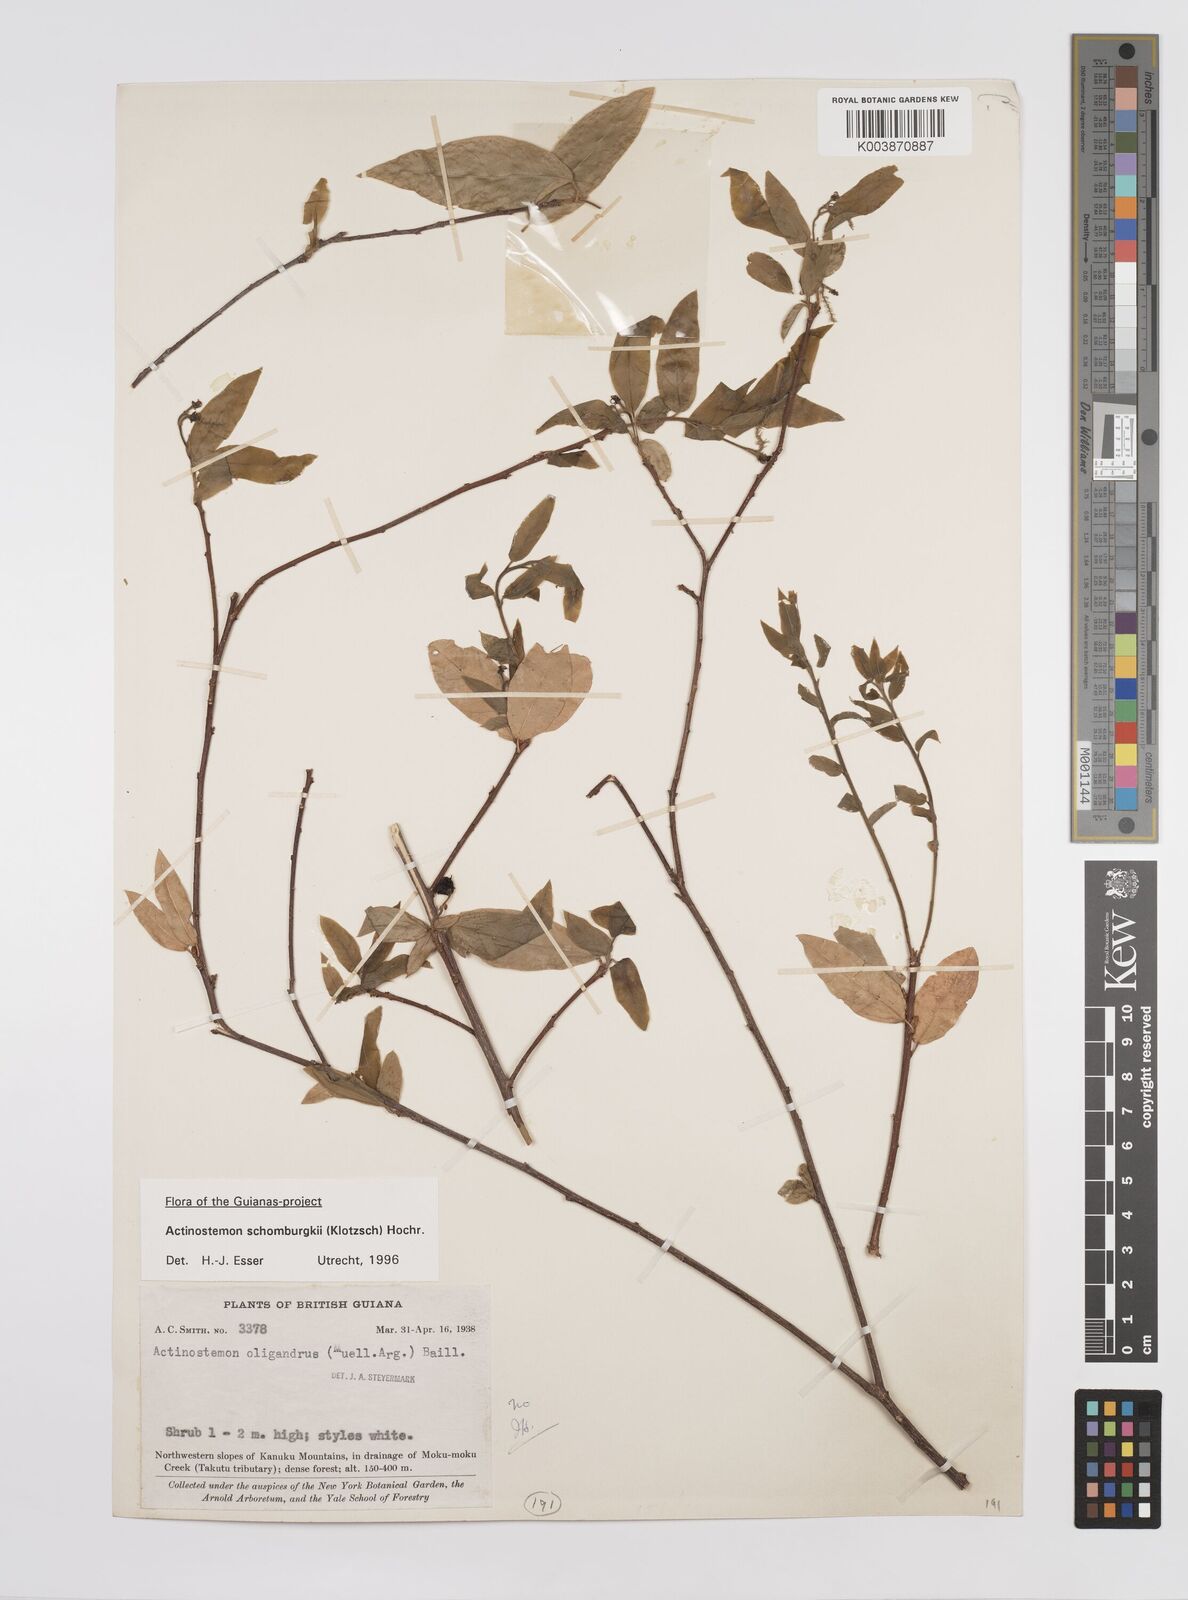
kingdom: Plantae
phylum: Tracheophyta
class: Magnoliopsida
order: Malpighiales
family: Euphorbiaceae
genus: Actinostemon
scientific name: Actinostemon schomburgkii
